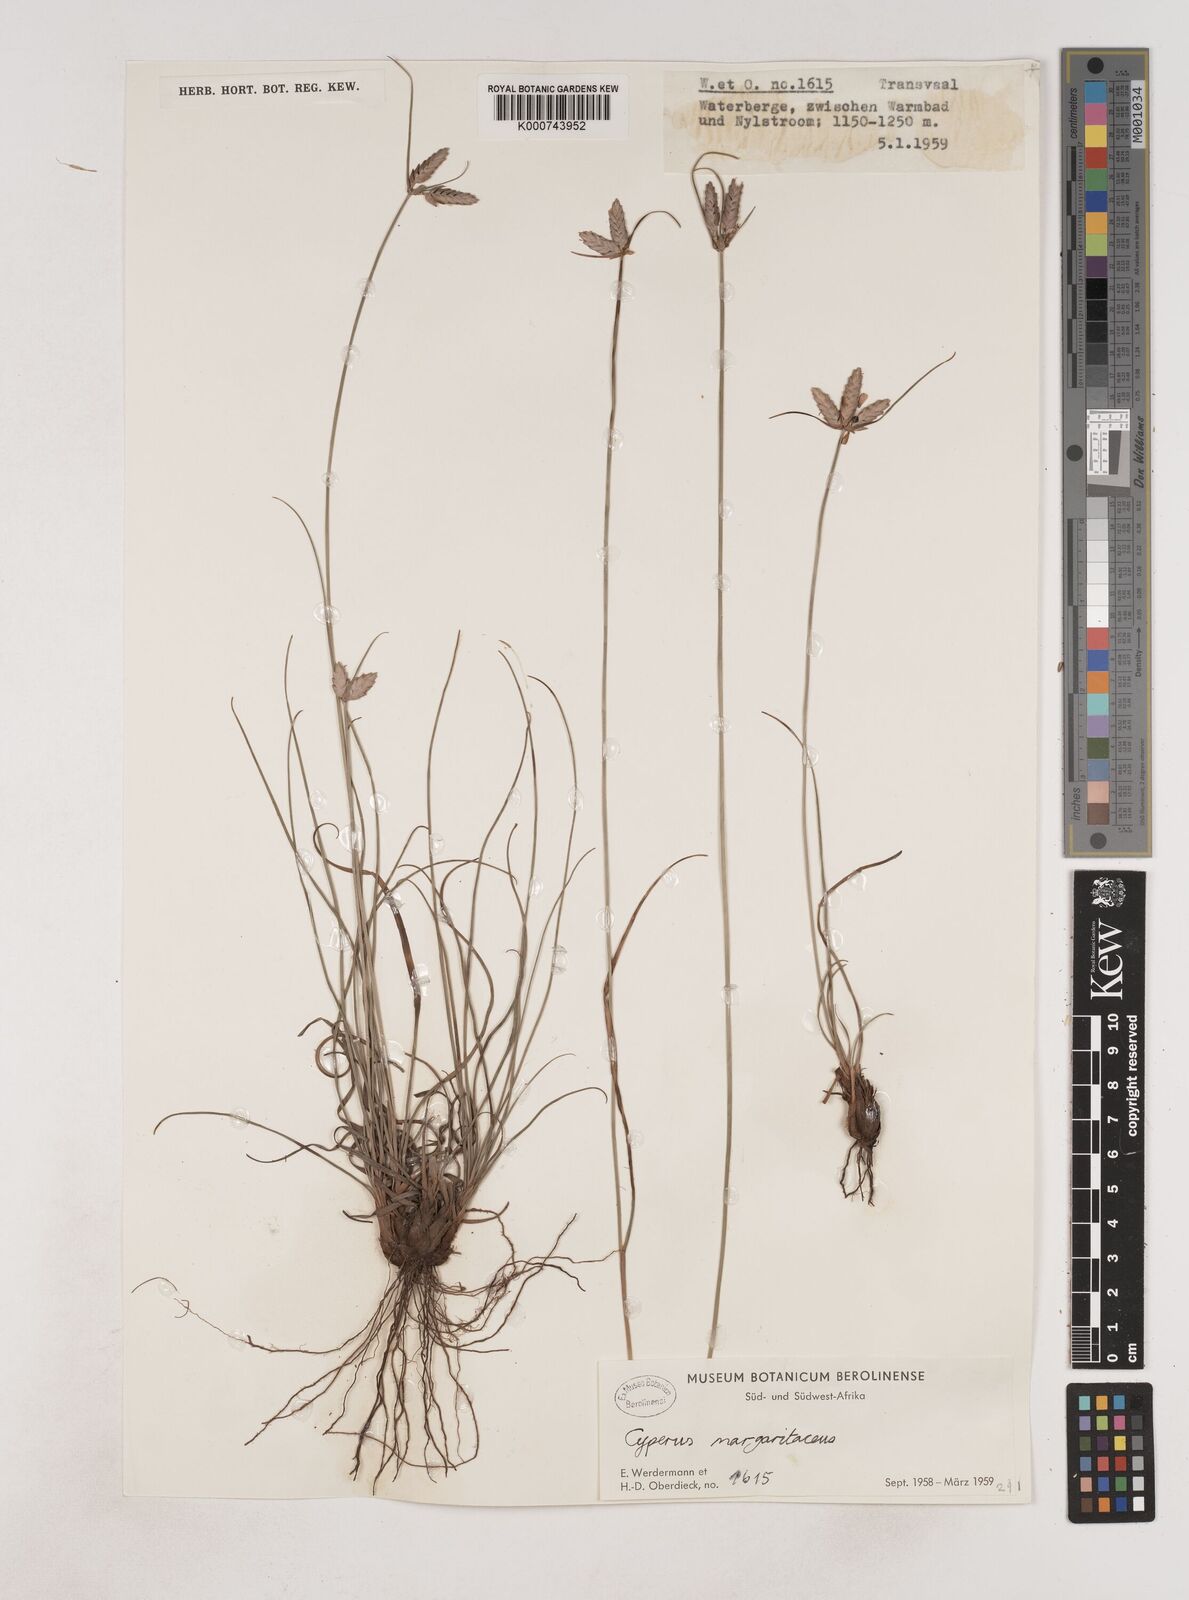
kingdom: Plantae
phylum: Tracheophyta
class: Liliopsida
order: Poales
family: Cyperaceae
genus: Cyperus
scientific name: Cyperus margaritaceus
